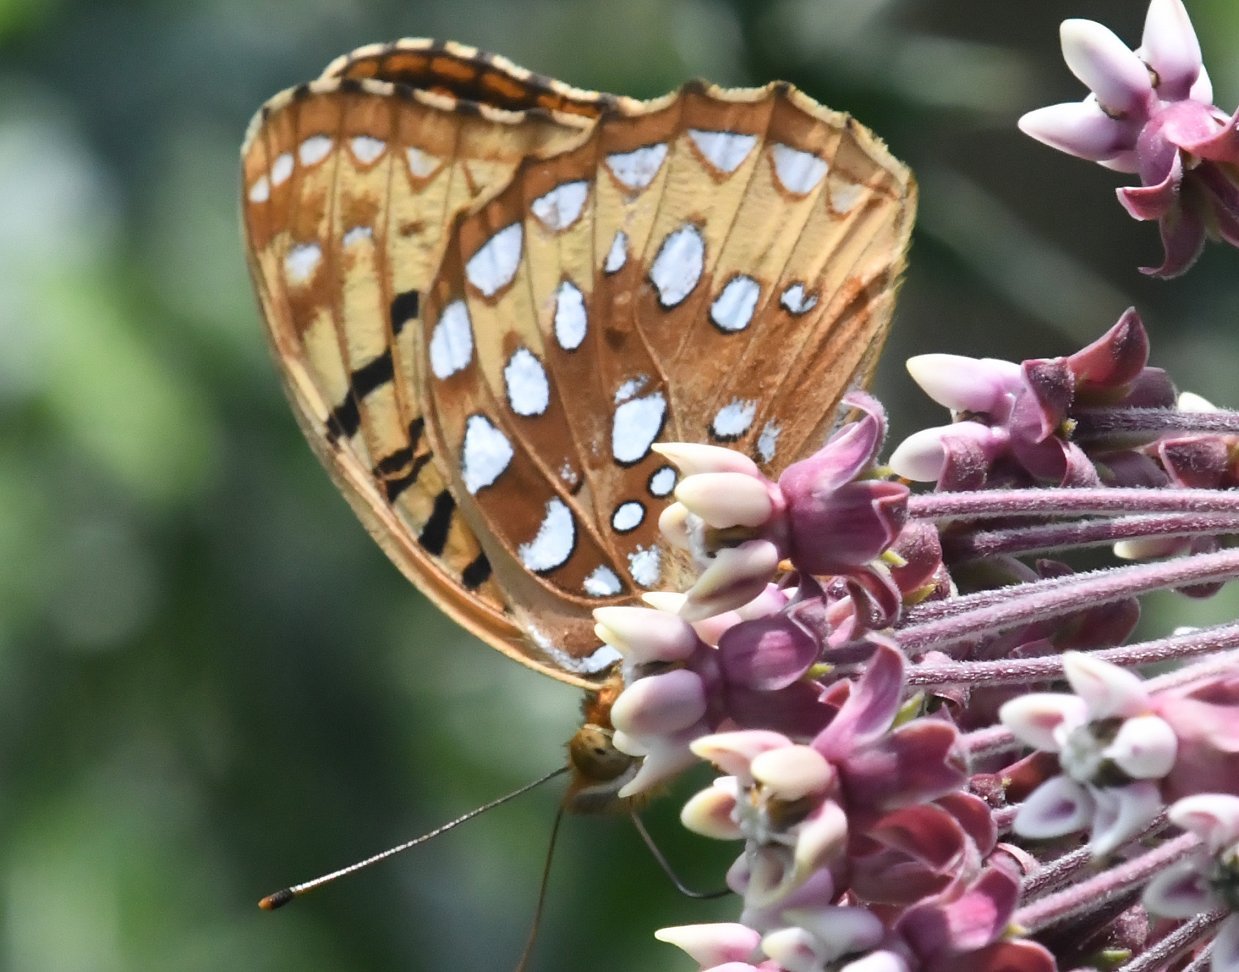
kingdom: Animalia
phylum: Arthropoda
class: Insecta
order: Lepidoptera
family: Nymphalidae
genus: Speyeria
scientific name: Speyeria cybele
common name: Great Spangled Fritillary
